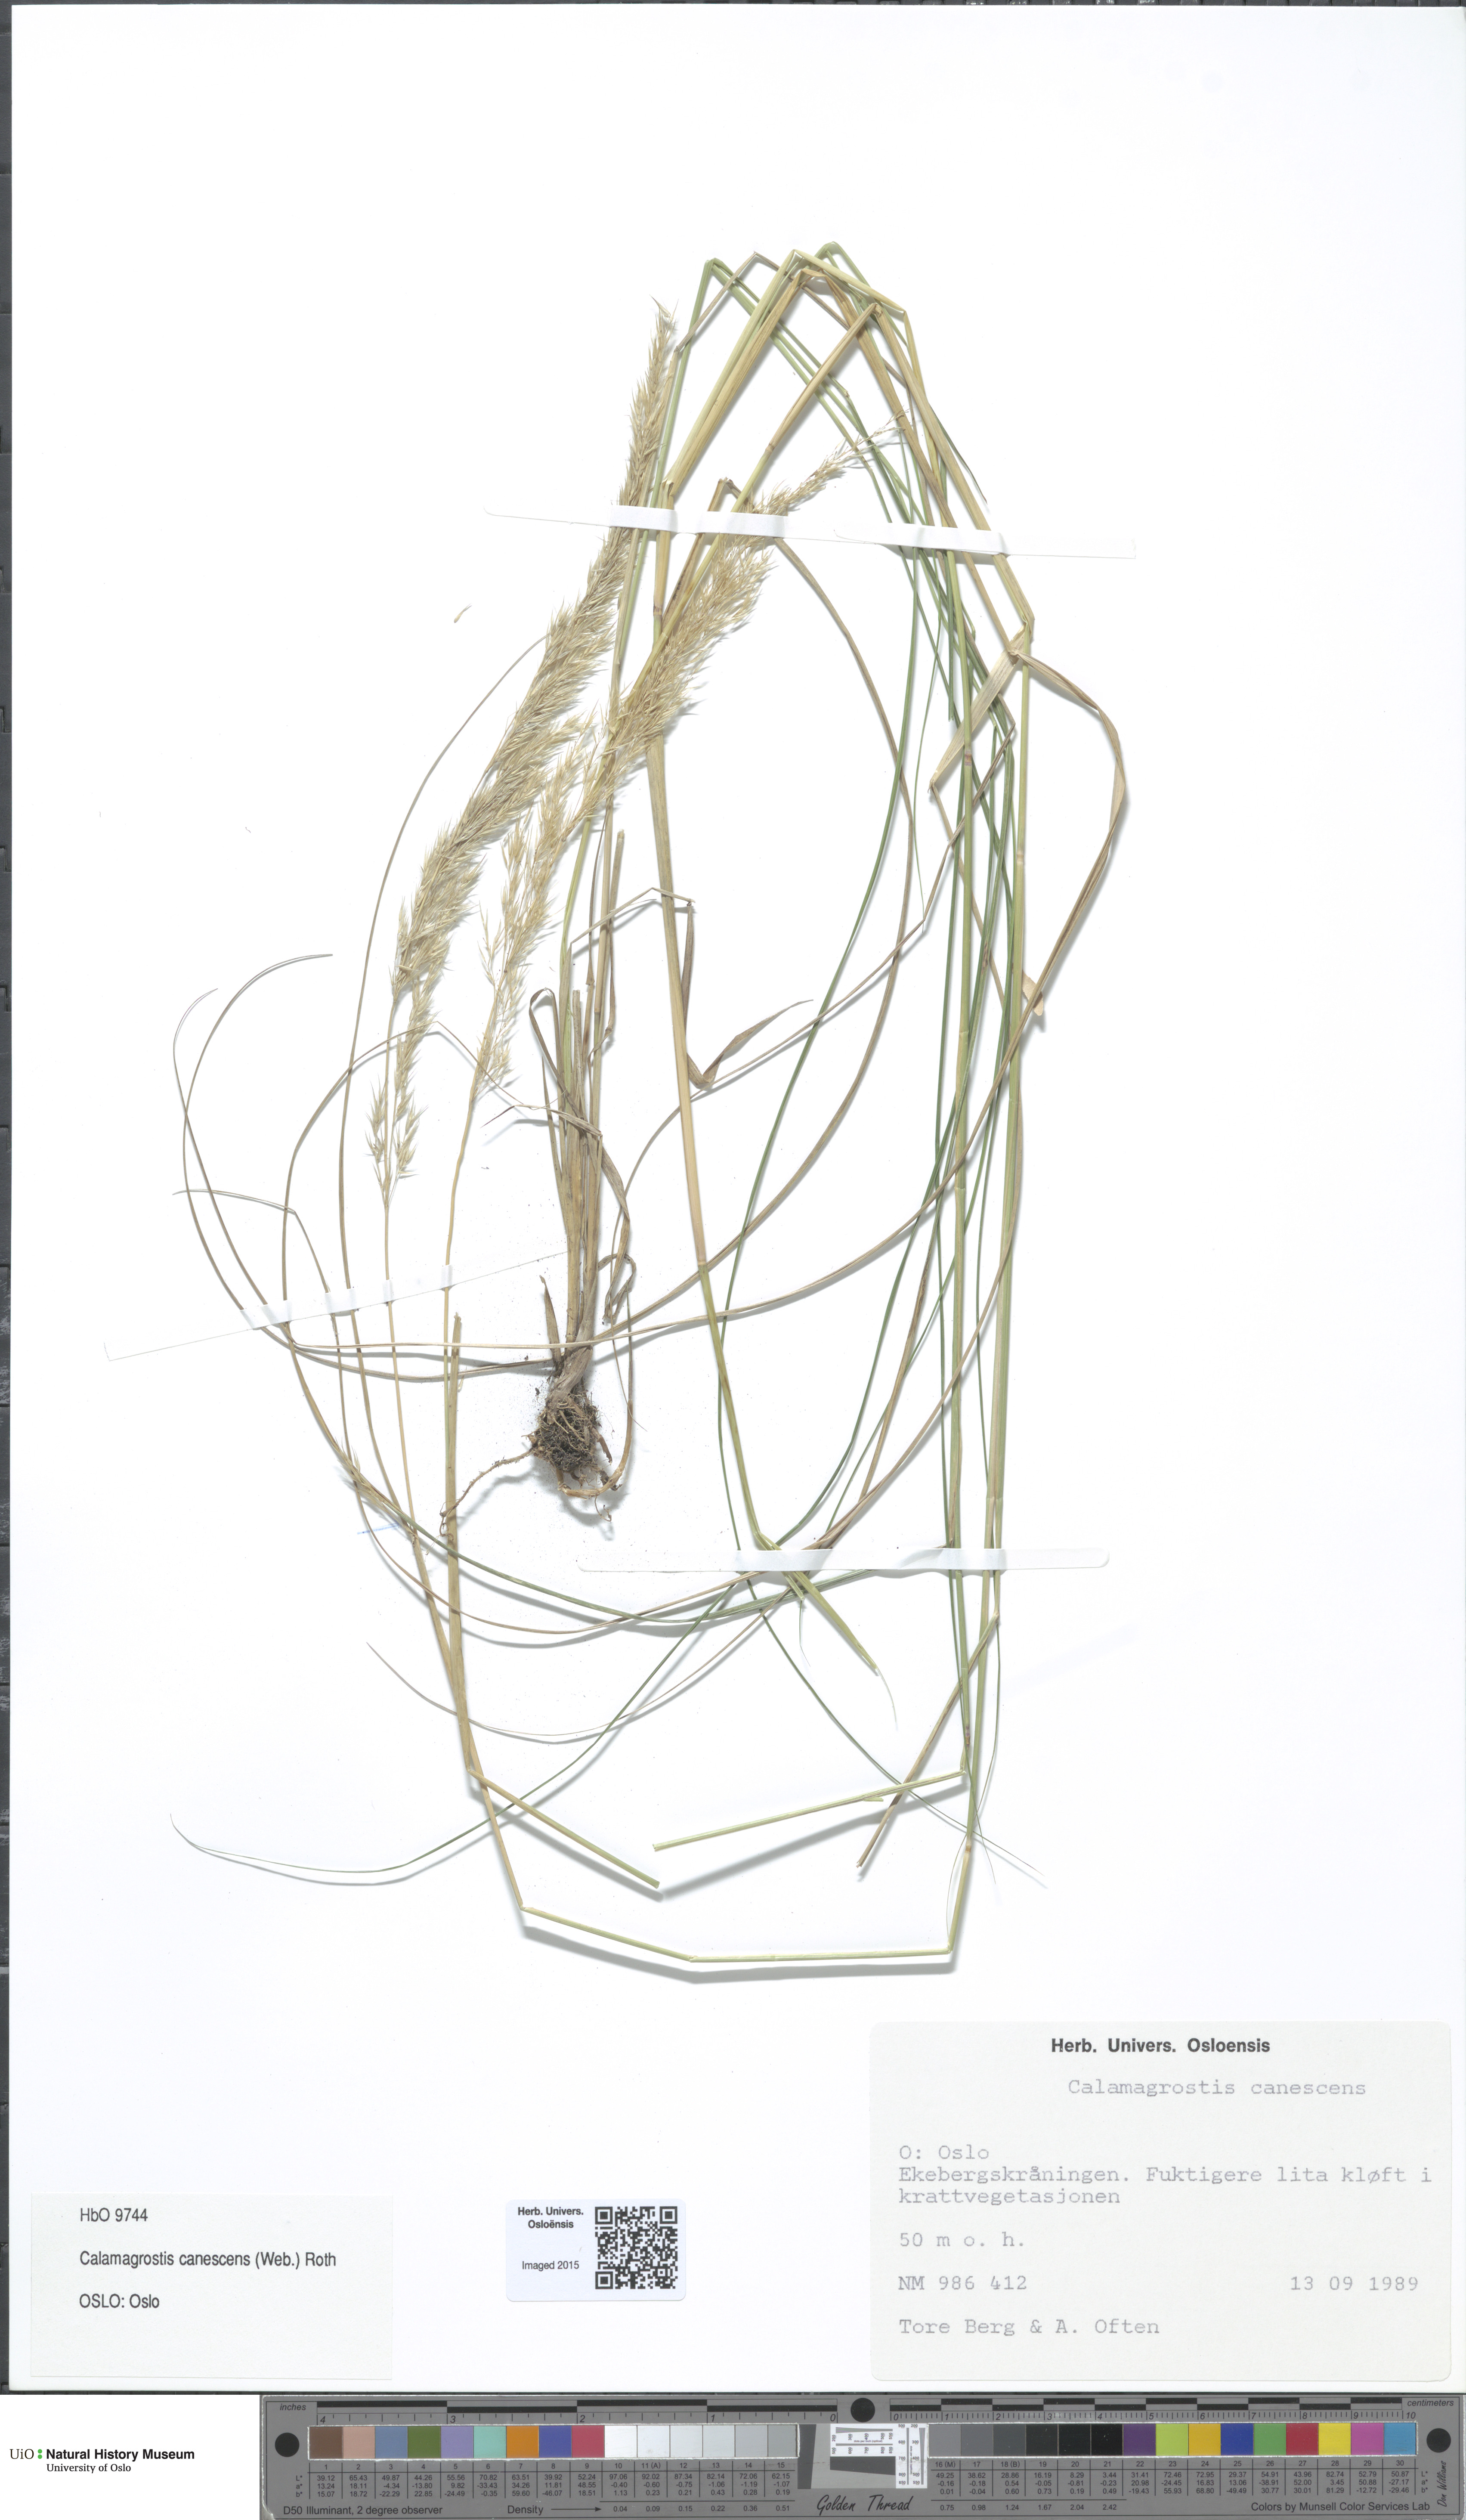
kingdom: Plantae
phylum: Tracheophyta
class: Liliopsida
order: Poales
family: Poaceae
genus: Calamagrostis
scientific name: Calamagrostis canescens
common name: Purple small-reed
